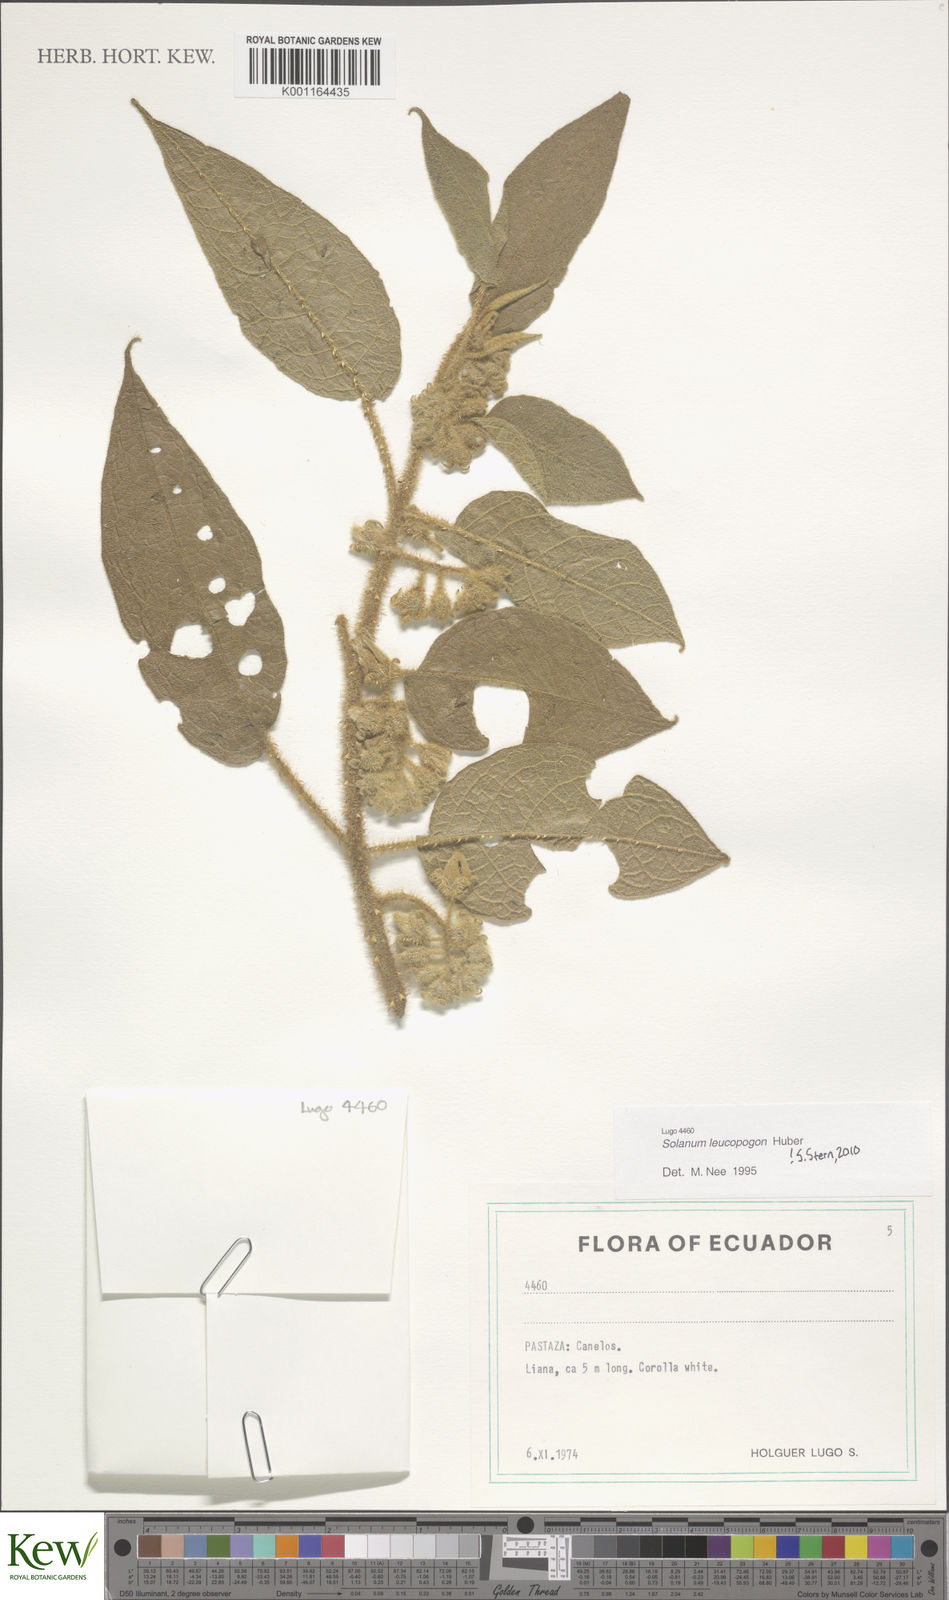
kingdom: Plantae
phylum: Tracheophyta
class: Magnoliopsida
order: Solanales
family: Solanaceae
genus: Solanum
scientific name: Solanum leucopogon
